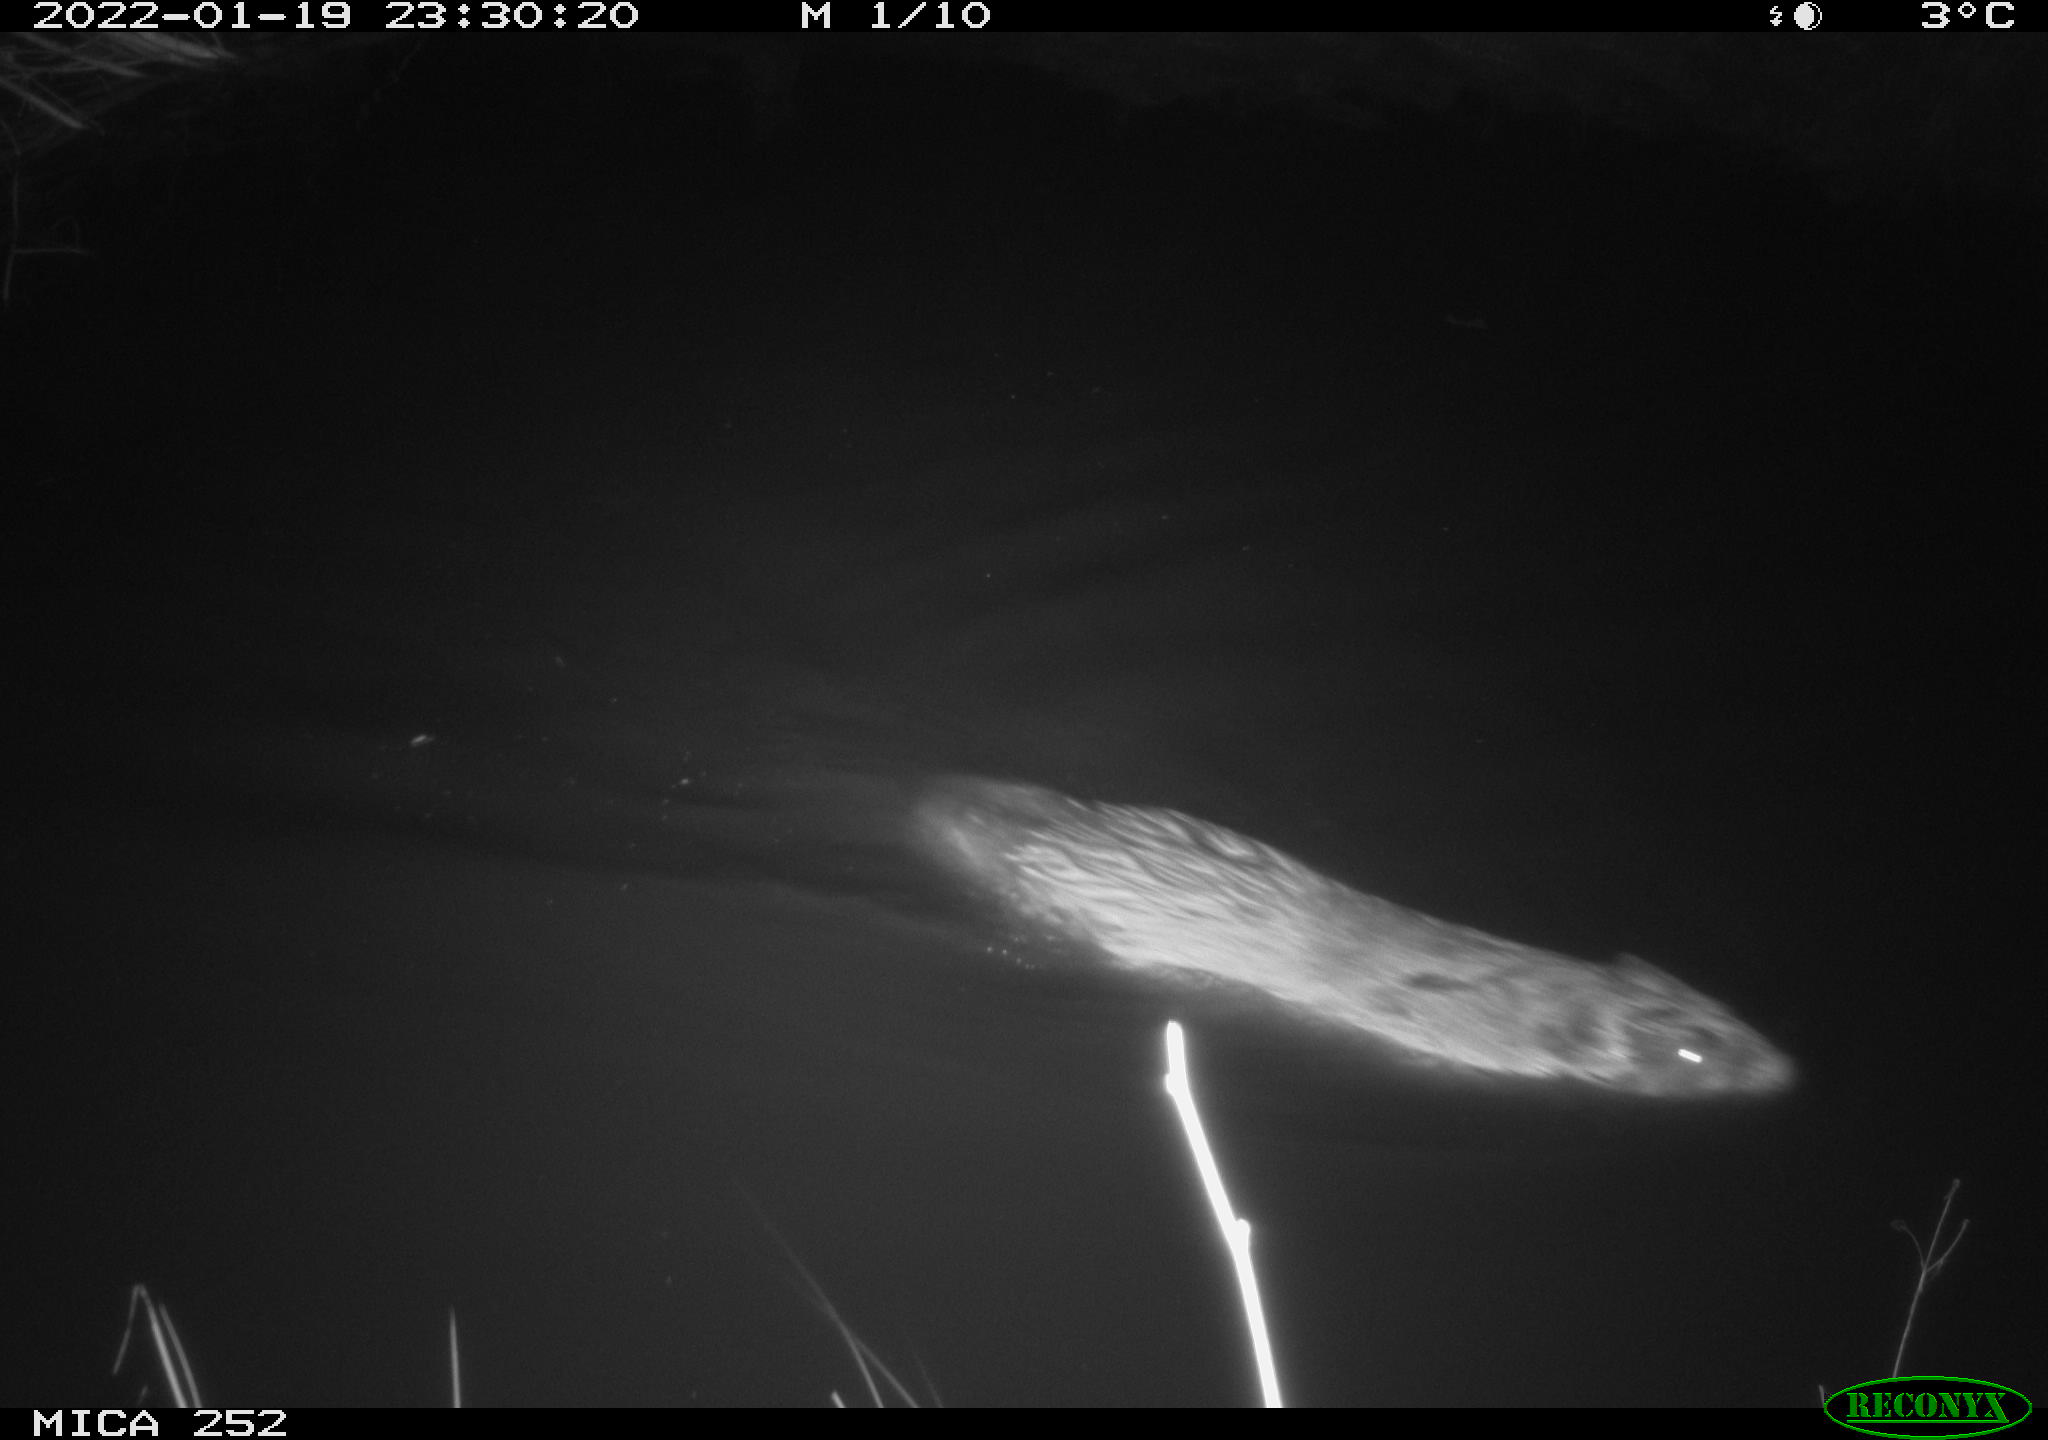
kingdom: Animalia
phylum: Chordata
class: Mammalia
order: Rodentia
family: Castoridae
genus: Castor
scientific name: Castor fiber
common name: Eurasian beaver
